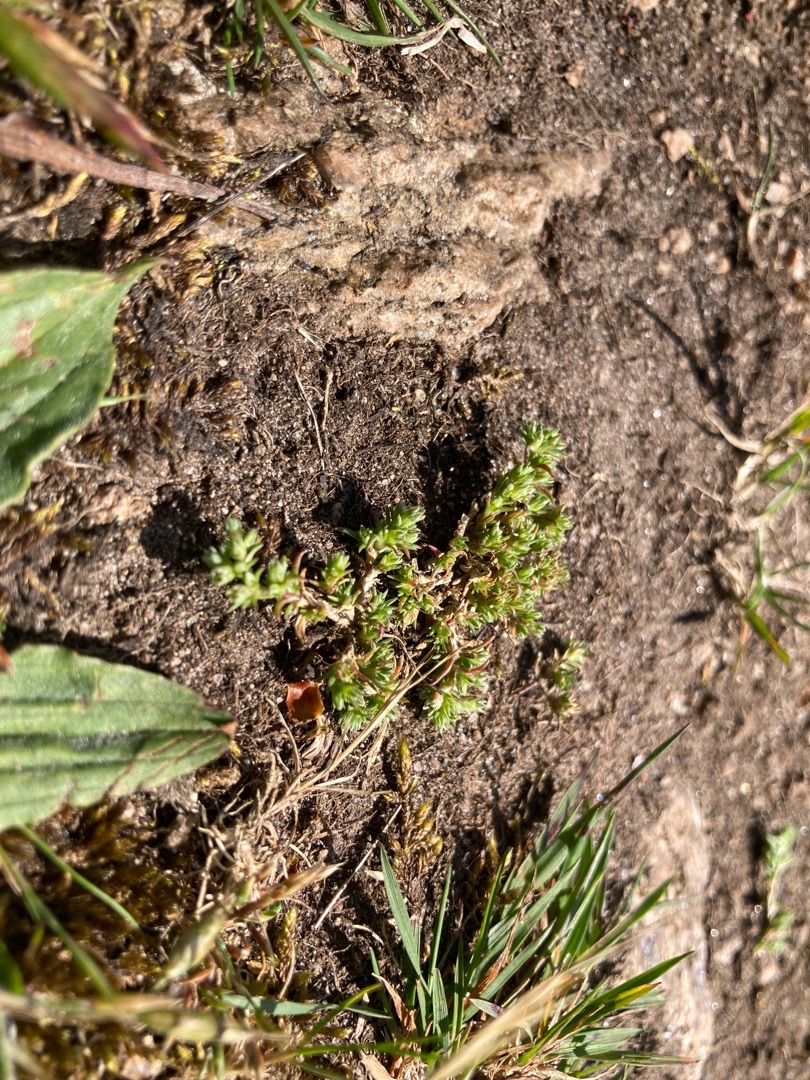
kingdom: Plantae
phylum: Tracheophyta
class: Magnoliopsida
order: Caryophyllales
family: Caryophyllaceae
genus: Scleranthus
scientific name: Scleranthus annuus
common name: Bakke-knavel
